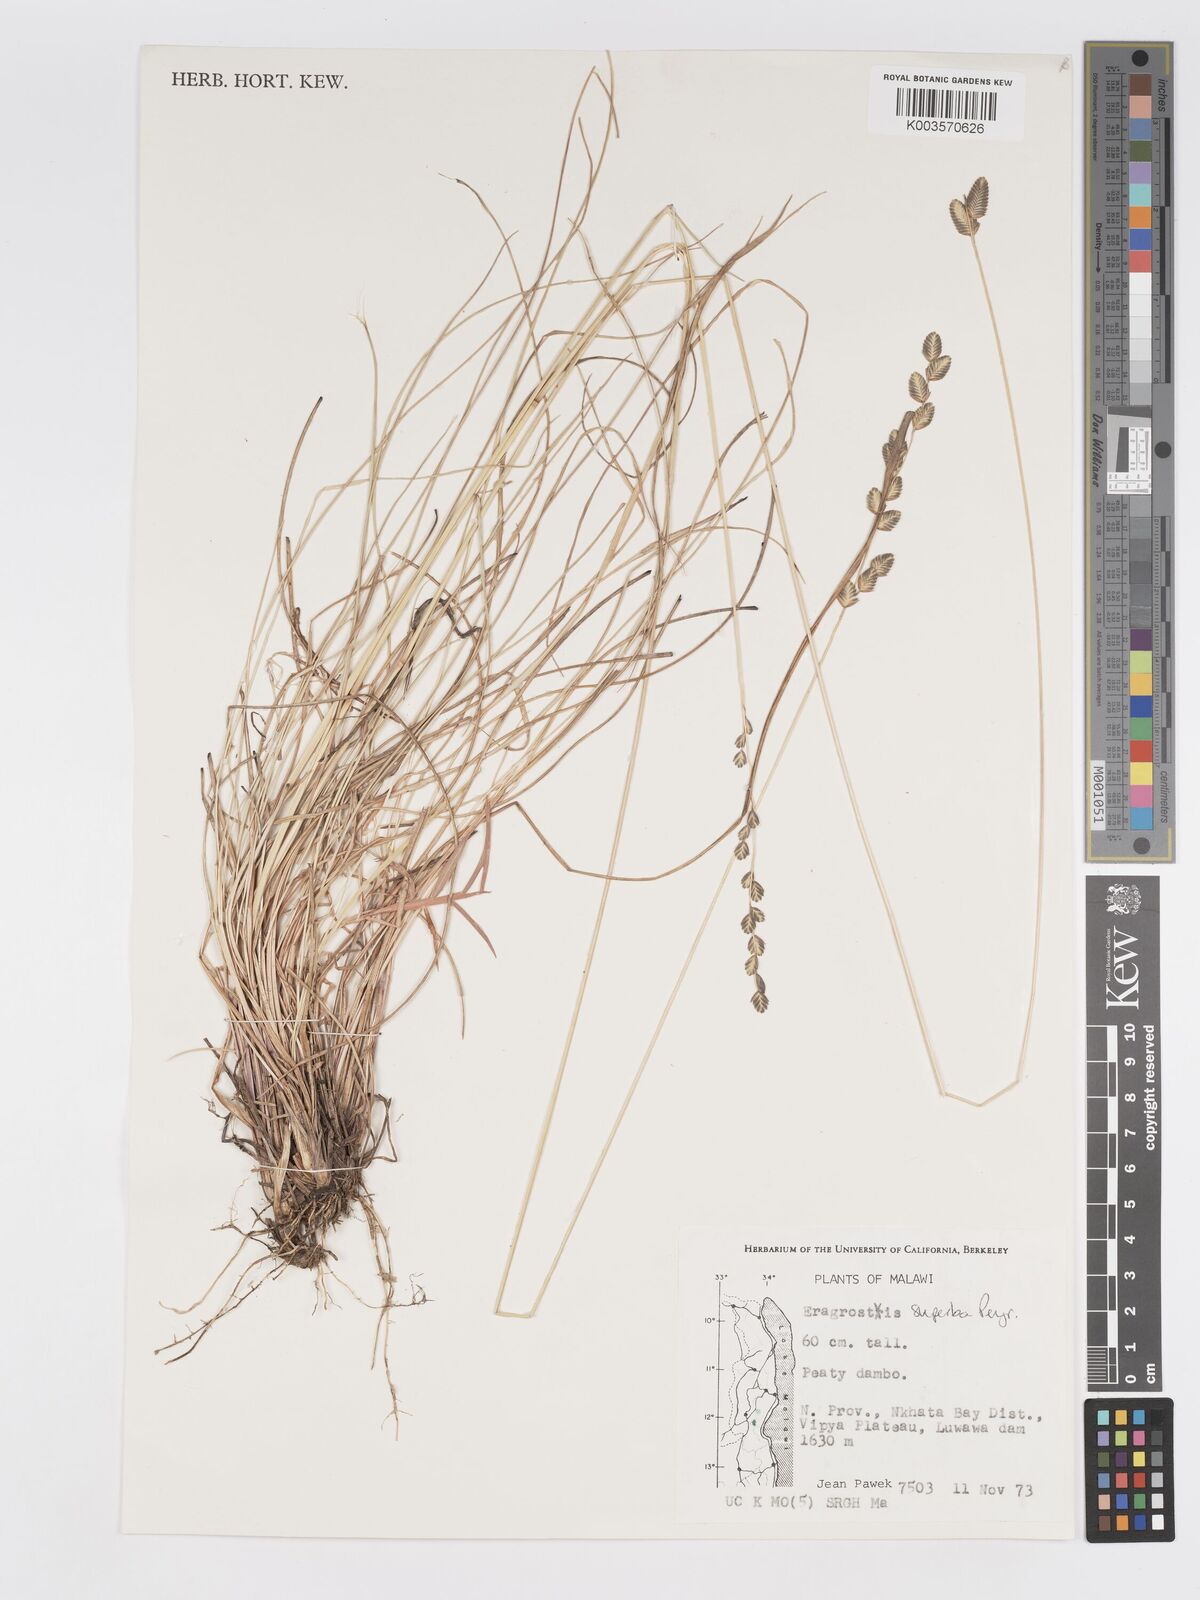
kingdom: Plantae
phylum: Tracheophyta
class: Liliopsida
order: Poales
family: Poaceae
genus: Eragrostis
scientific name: Eragrostis capensis
